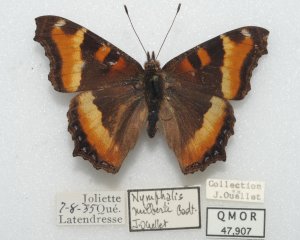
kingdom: Animalia
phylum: Arthropoda
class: Insecta
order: Lepidoptera
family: Nymphalidae
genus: Aglais
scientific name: Aglais milberti
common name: Milbert's Tortoiseshell
